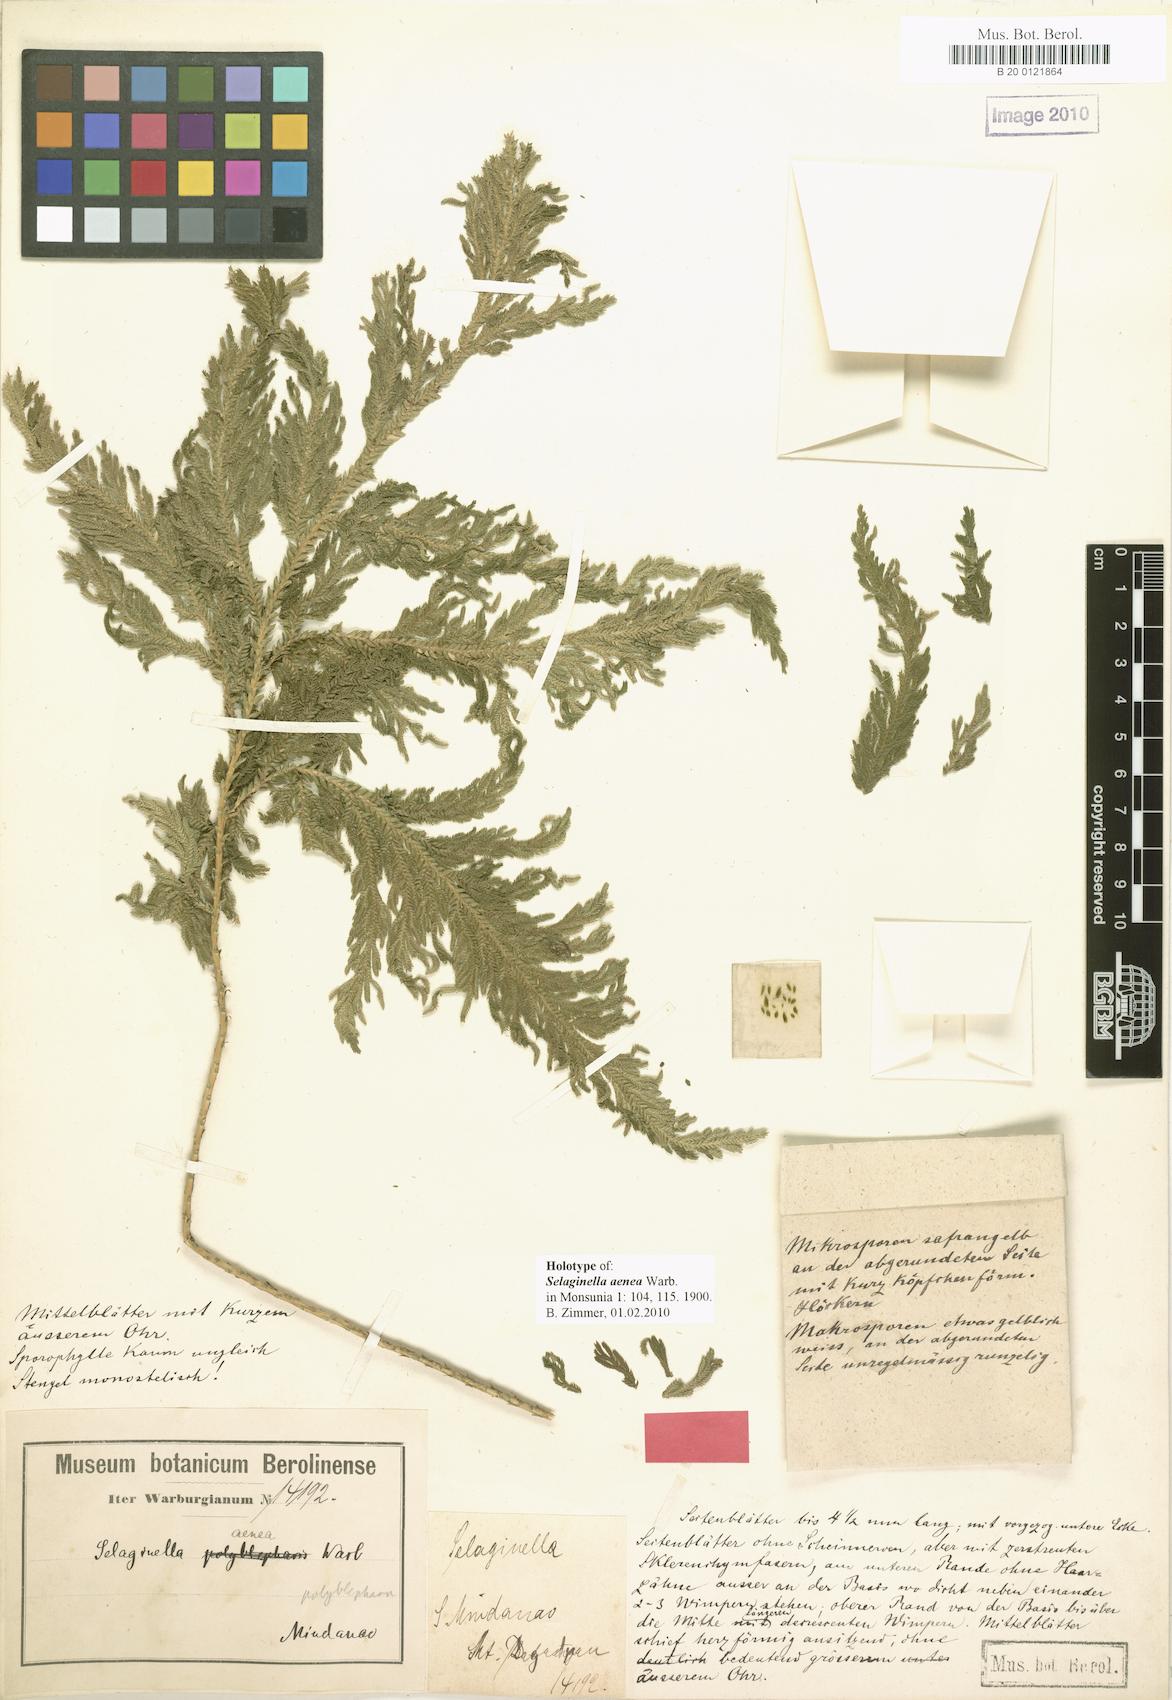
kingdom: Plantae
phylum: Tracheophyta
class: Lycopodiopsida
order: Selaginellales
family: Selaginellaceae
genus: Selaginella
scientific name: Selaginella aenea
